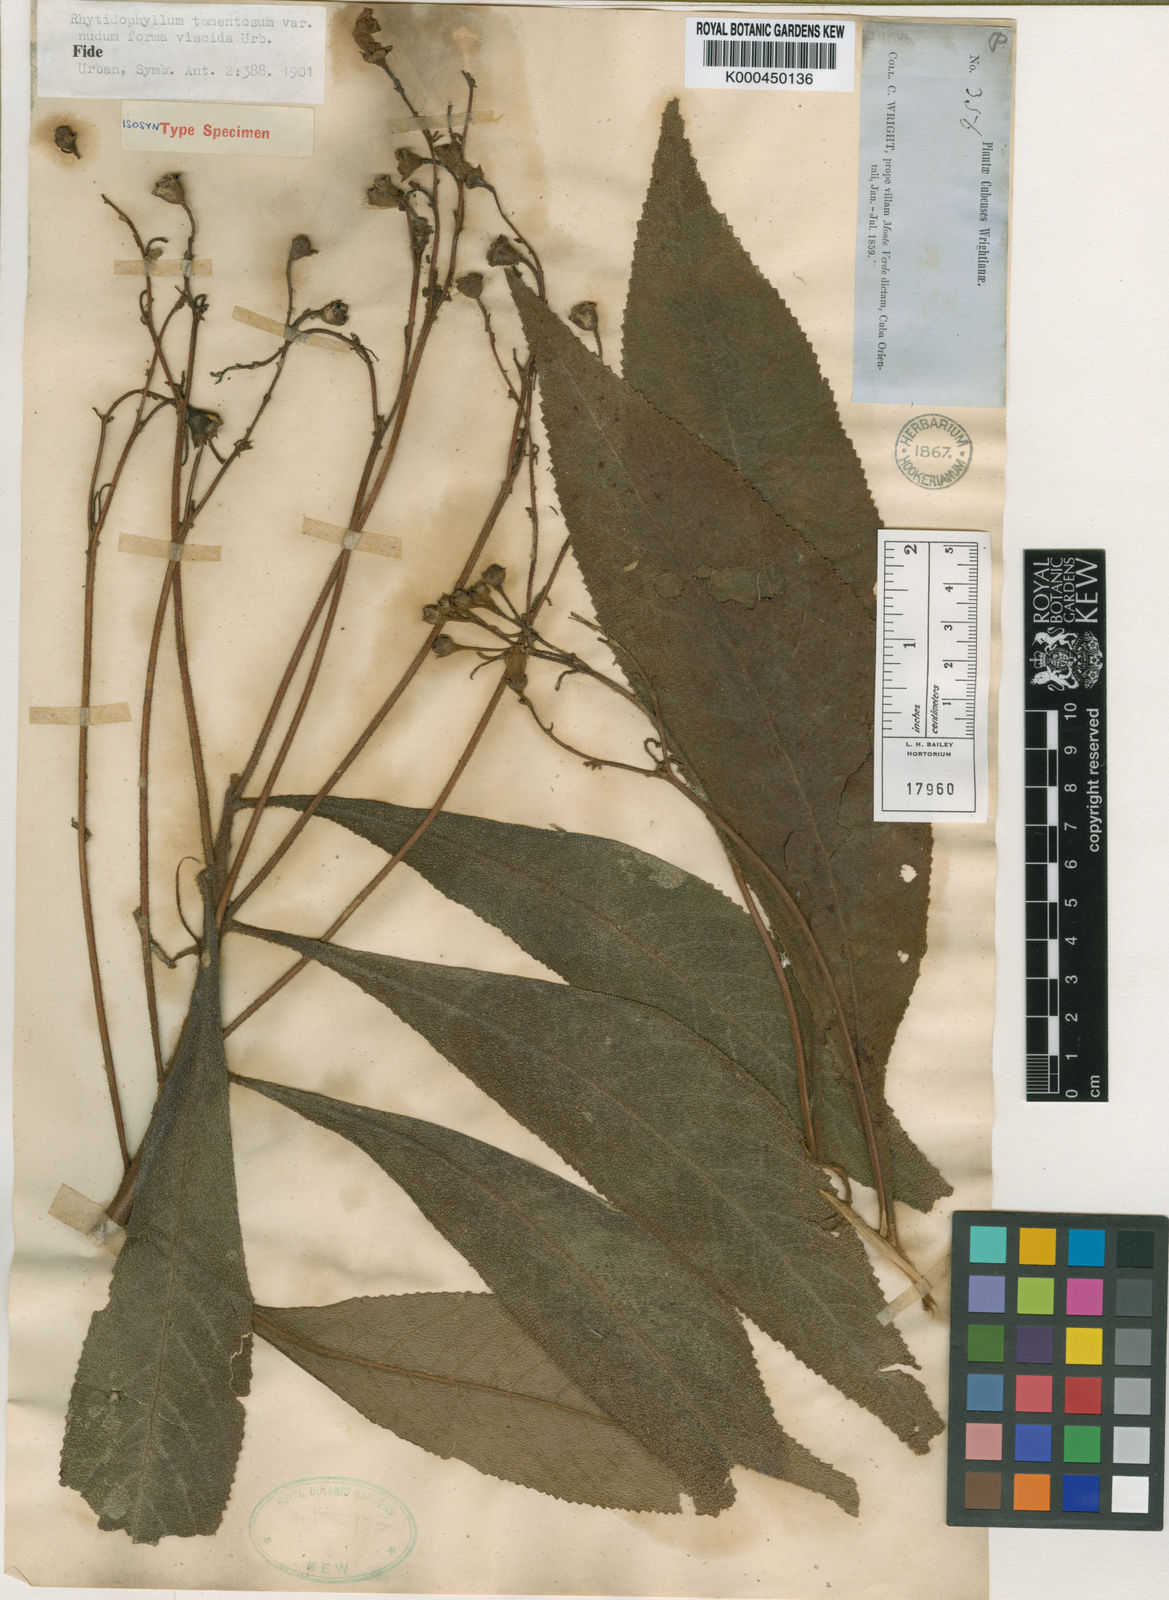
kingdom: Plantae
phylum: Tracheophyta
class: Magnoliopsida
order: Lamiales
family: Gesneriaceae
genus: Rhytidophyllum
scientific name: Rhytidophyllum tomentosum
